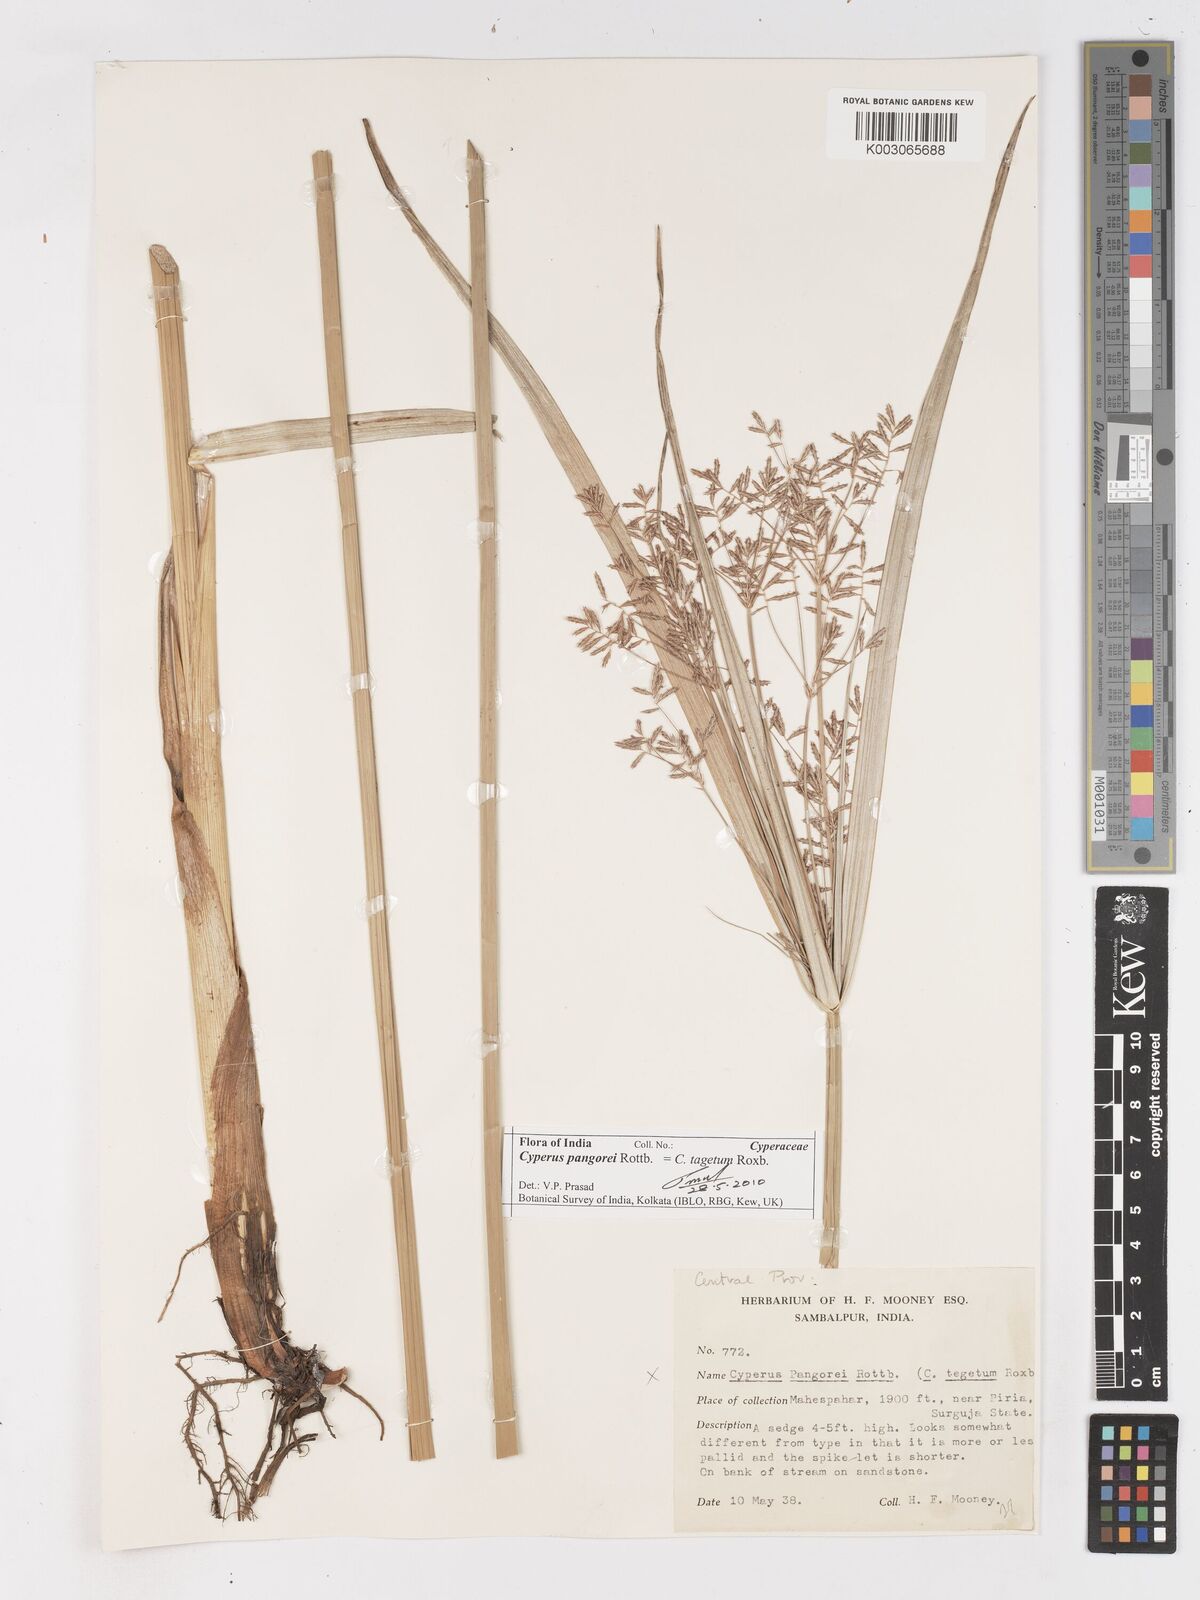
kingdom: Plantae
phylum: Tracheophyta
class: Liliopsida
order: Poales
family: Cyperaceae
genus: Cyperus
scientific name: Cyperus pangorei
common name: Mat sedge
